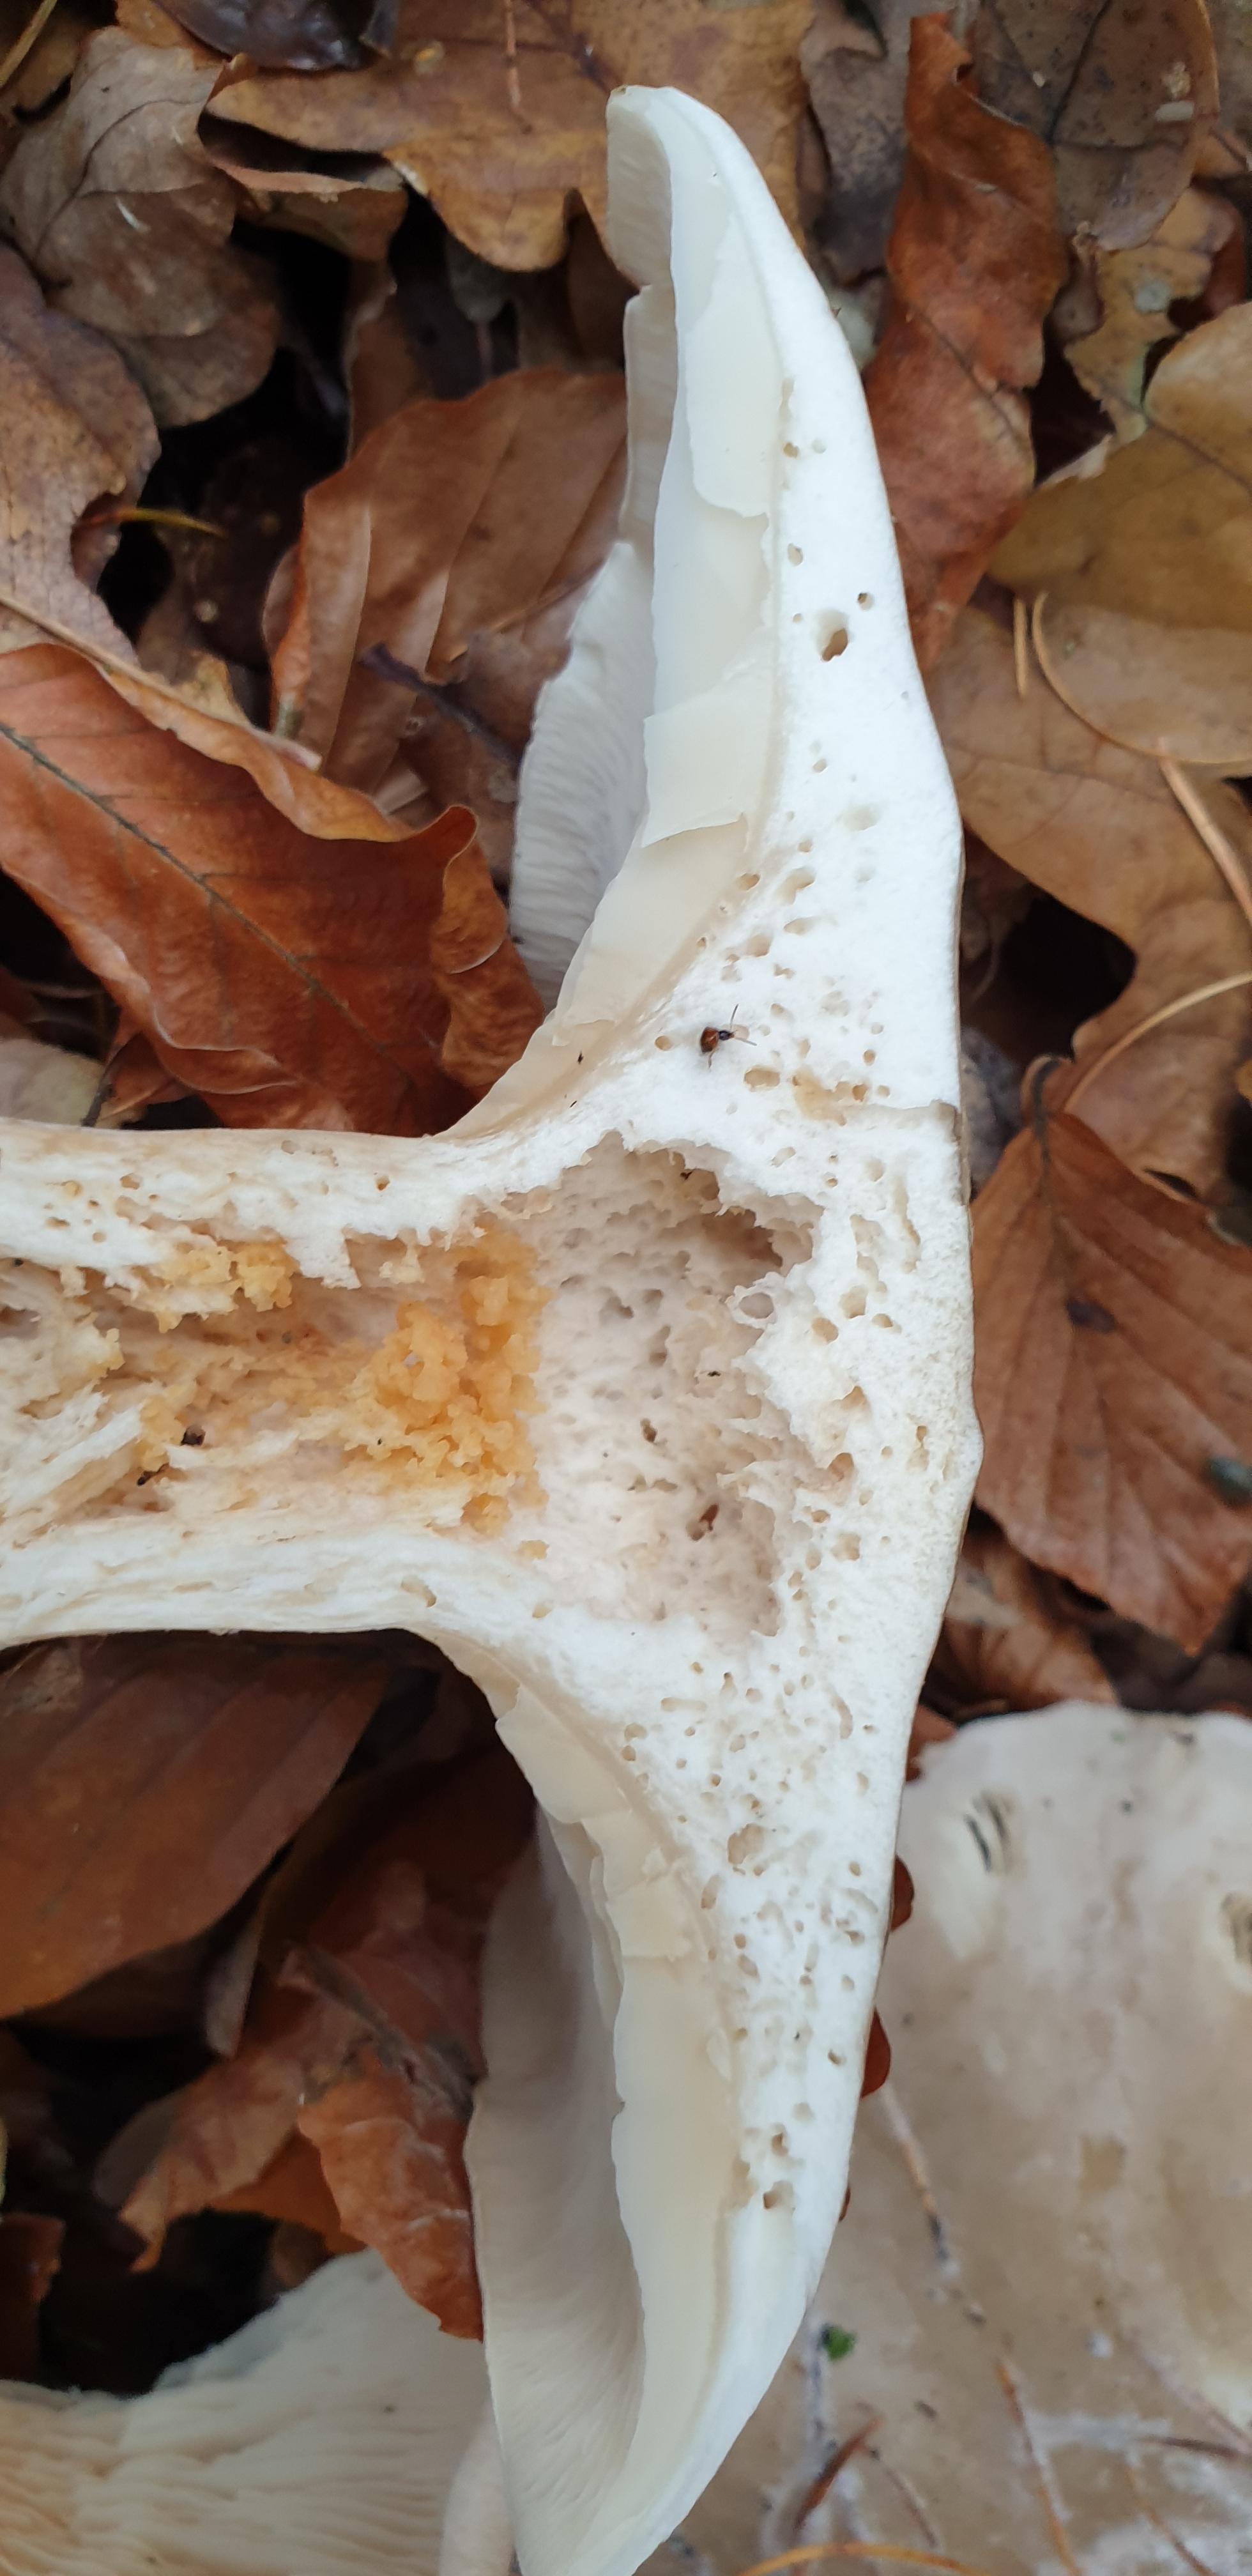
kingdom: Fungi
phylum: Basidiomycota
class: Agaricomycetes
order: Agaricales
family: Tricholomataceae
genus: Clitocybe
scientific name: Clitocybe nebularis
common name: tåge-tragthat
